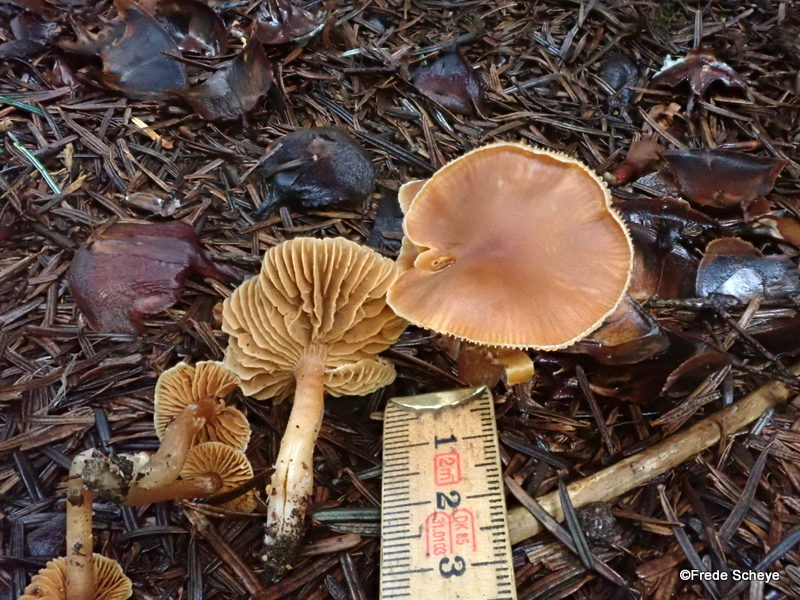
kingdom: Fungi
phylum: Basidiomycota
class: Agaricomycetes
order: Agaricales
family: Cortinariaceae
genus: Cortinarius
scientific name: Cortinarius obtusorum
